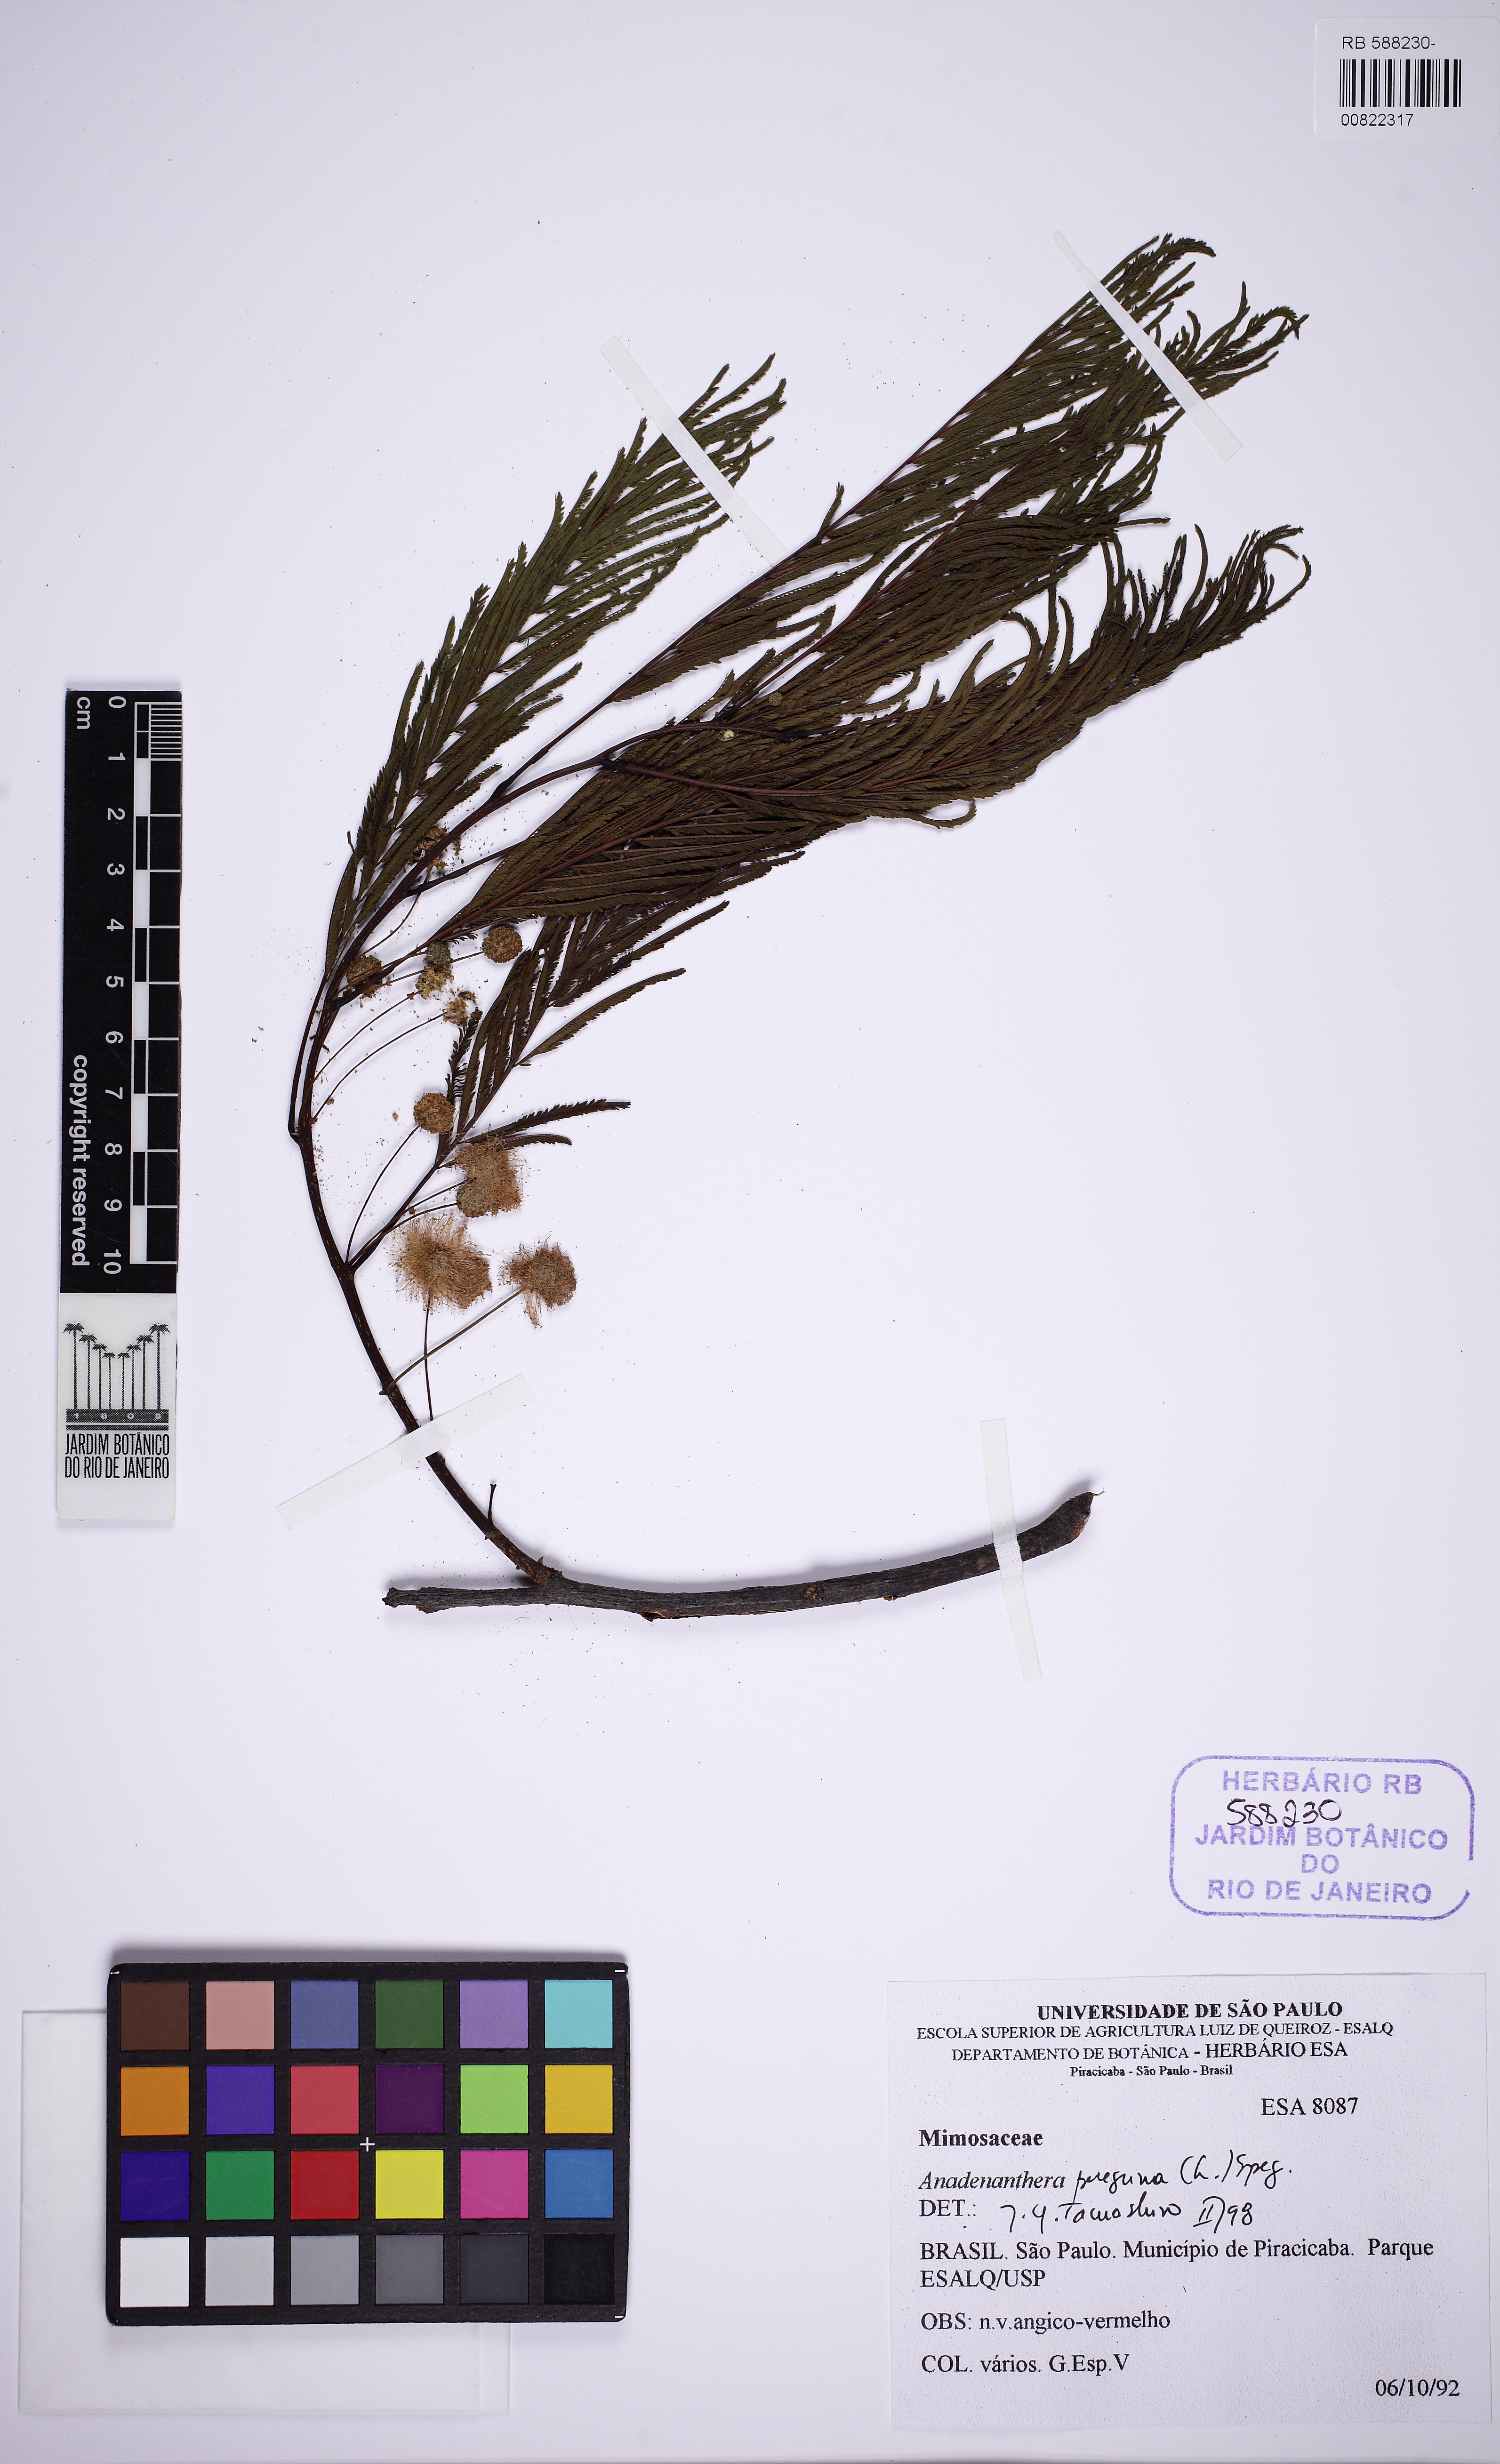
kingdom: Plantae
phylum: Tracheophyta
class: Magnoliopsida
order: Fabales
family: Fabaceae
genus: Anadenanthera
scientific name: Anadenanthera peregrina
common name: Cohoba
